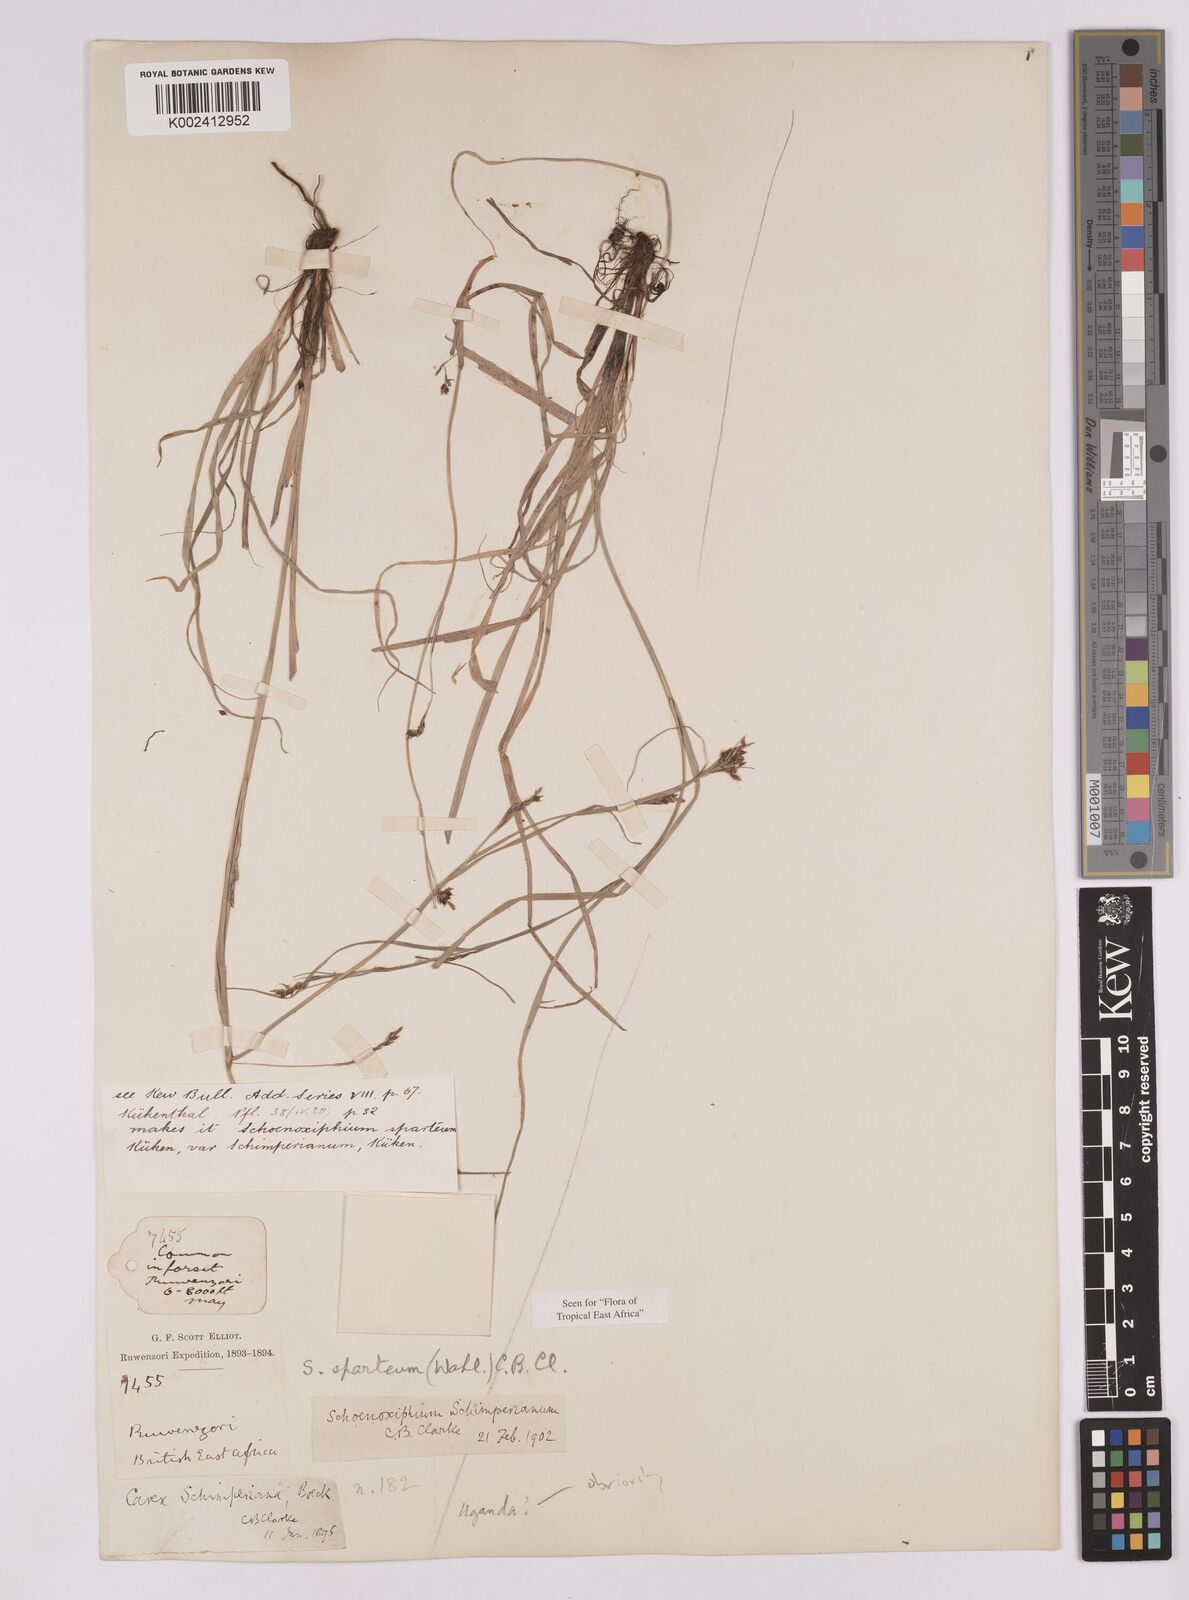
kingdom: Plantae
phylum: Tracheophyta
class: Liliopsida
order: Poales
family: Cyperaceae
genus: Carex
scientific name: Carex schimperiana
